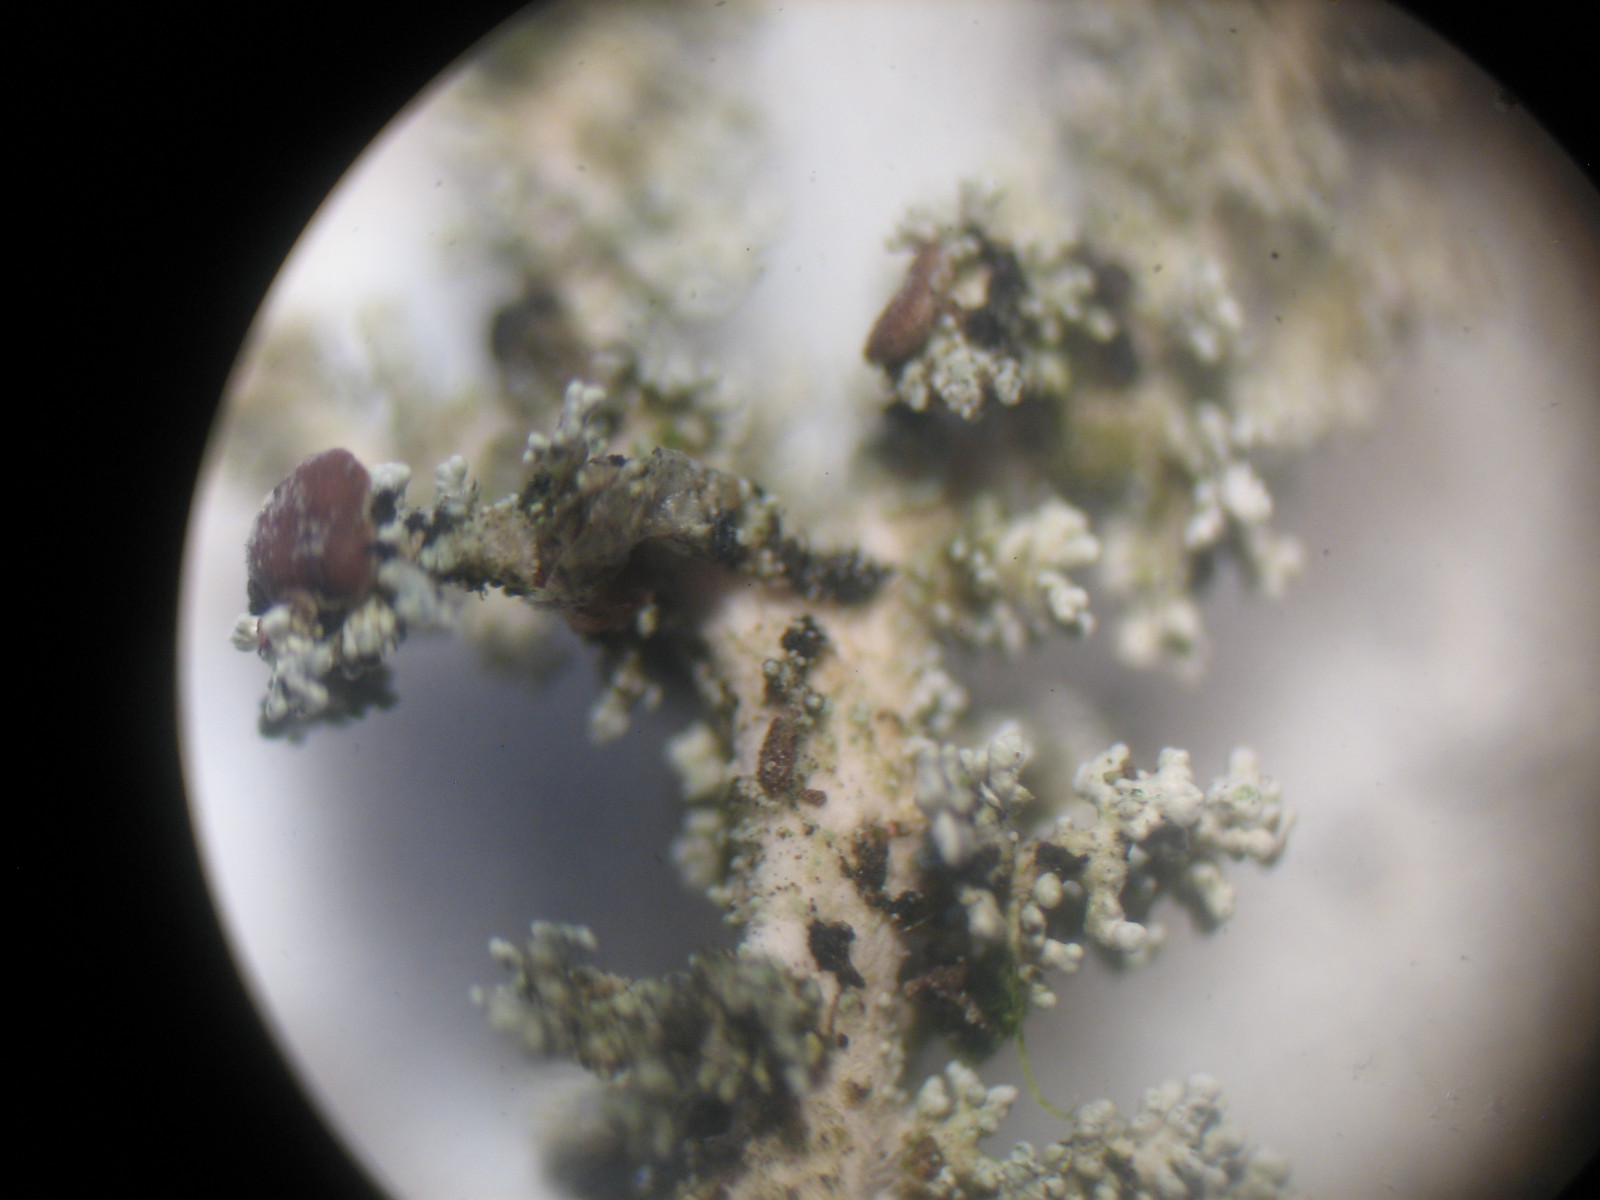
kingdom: Fungi
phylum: Ascomycota
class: Lecanoromycetes
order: Lecanorales
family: Stereocaulaceae
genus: Stereocaulon
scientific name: Stereocaulon dactylophyllum
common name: finger-korallav
